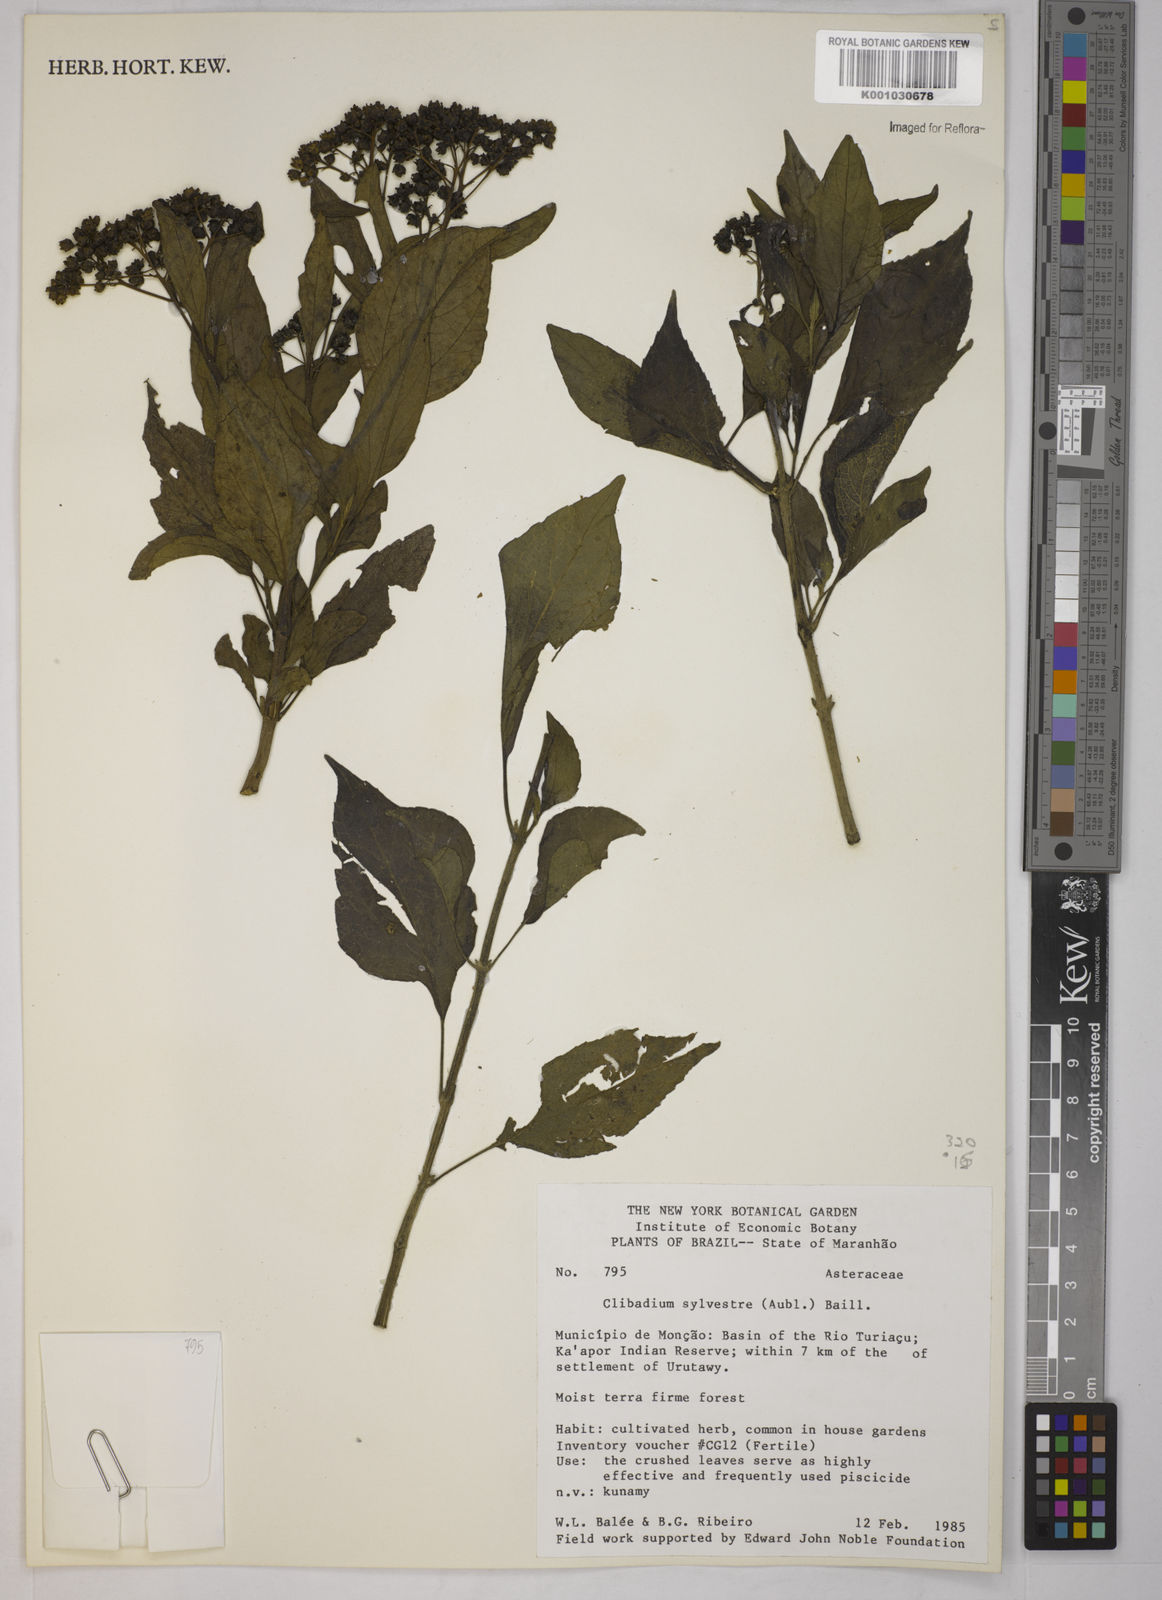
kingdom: Plantae
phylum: Tracheophyta
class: Magnoliopsida
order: Asterales
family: Asteraceae
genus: Clibadium
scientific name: Clibadium sylvestre
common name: Barbasco
